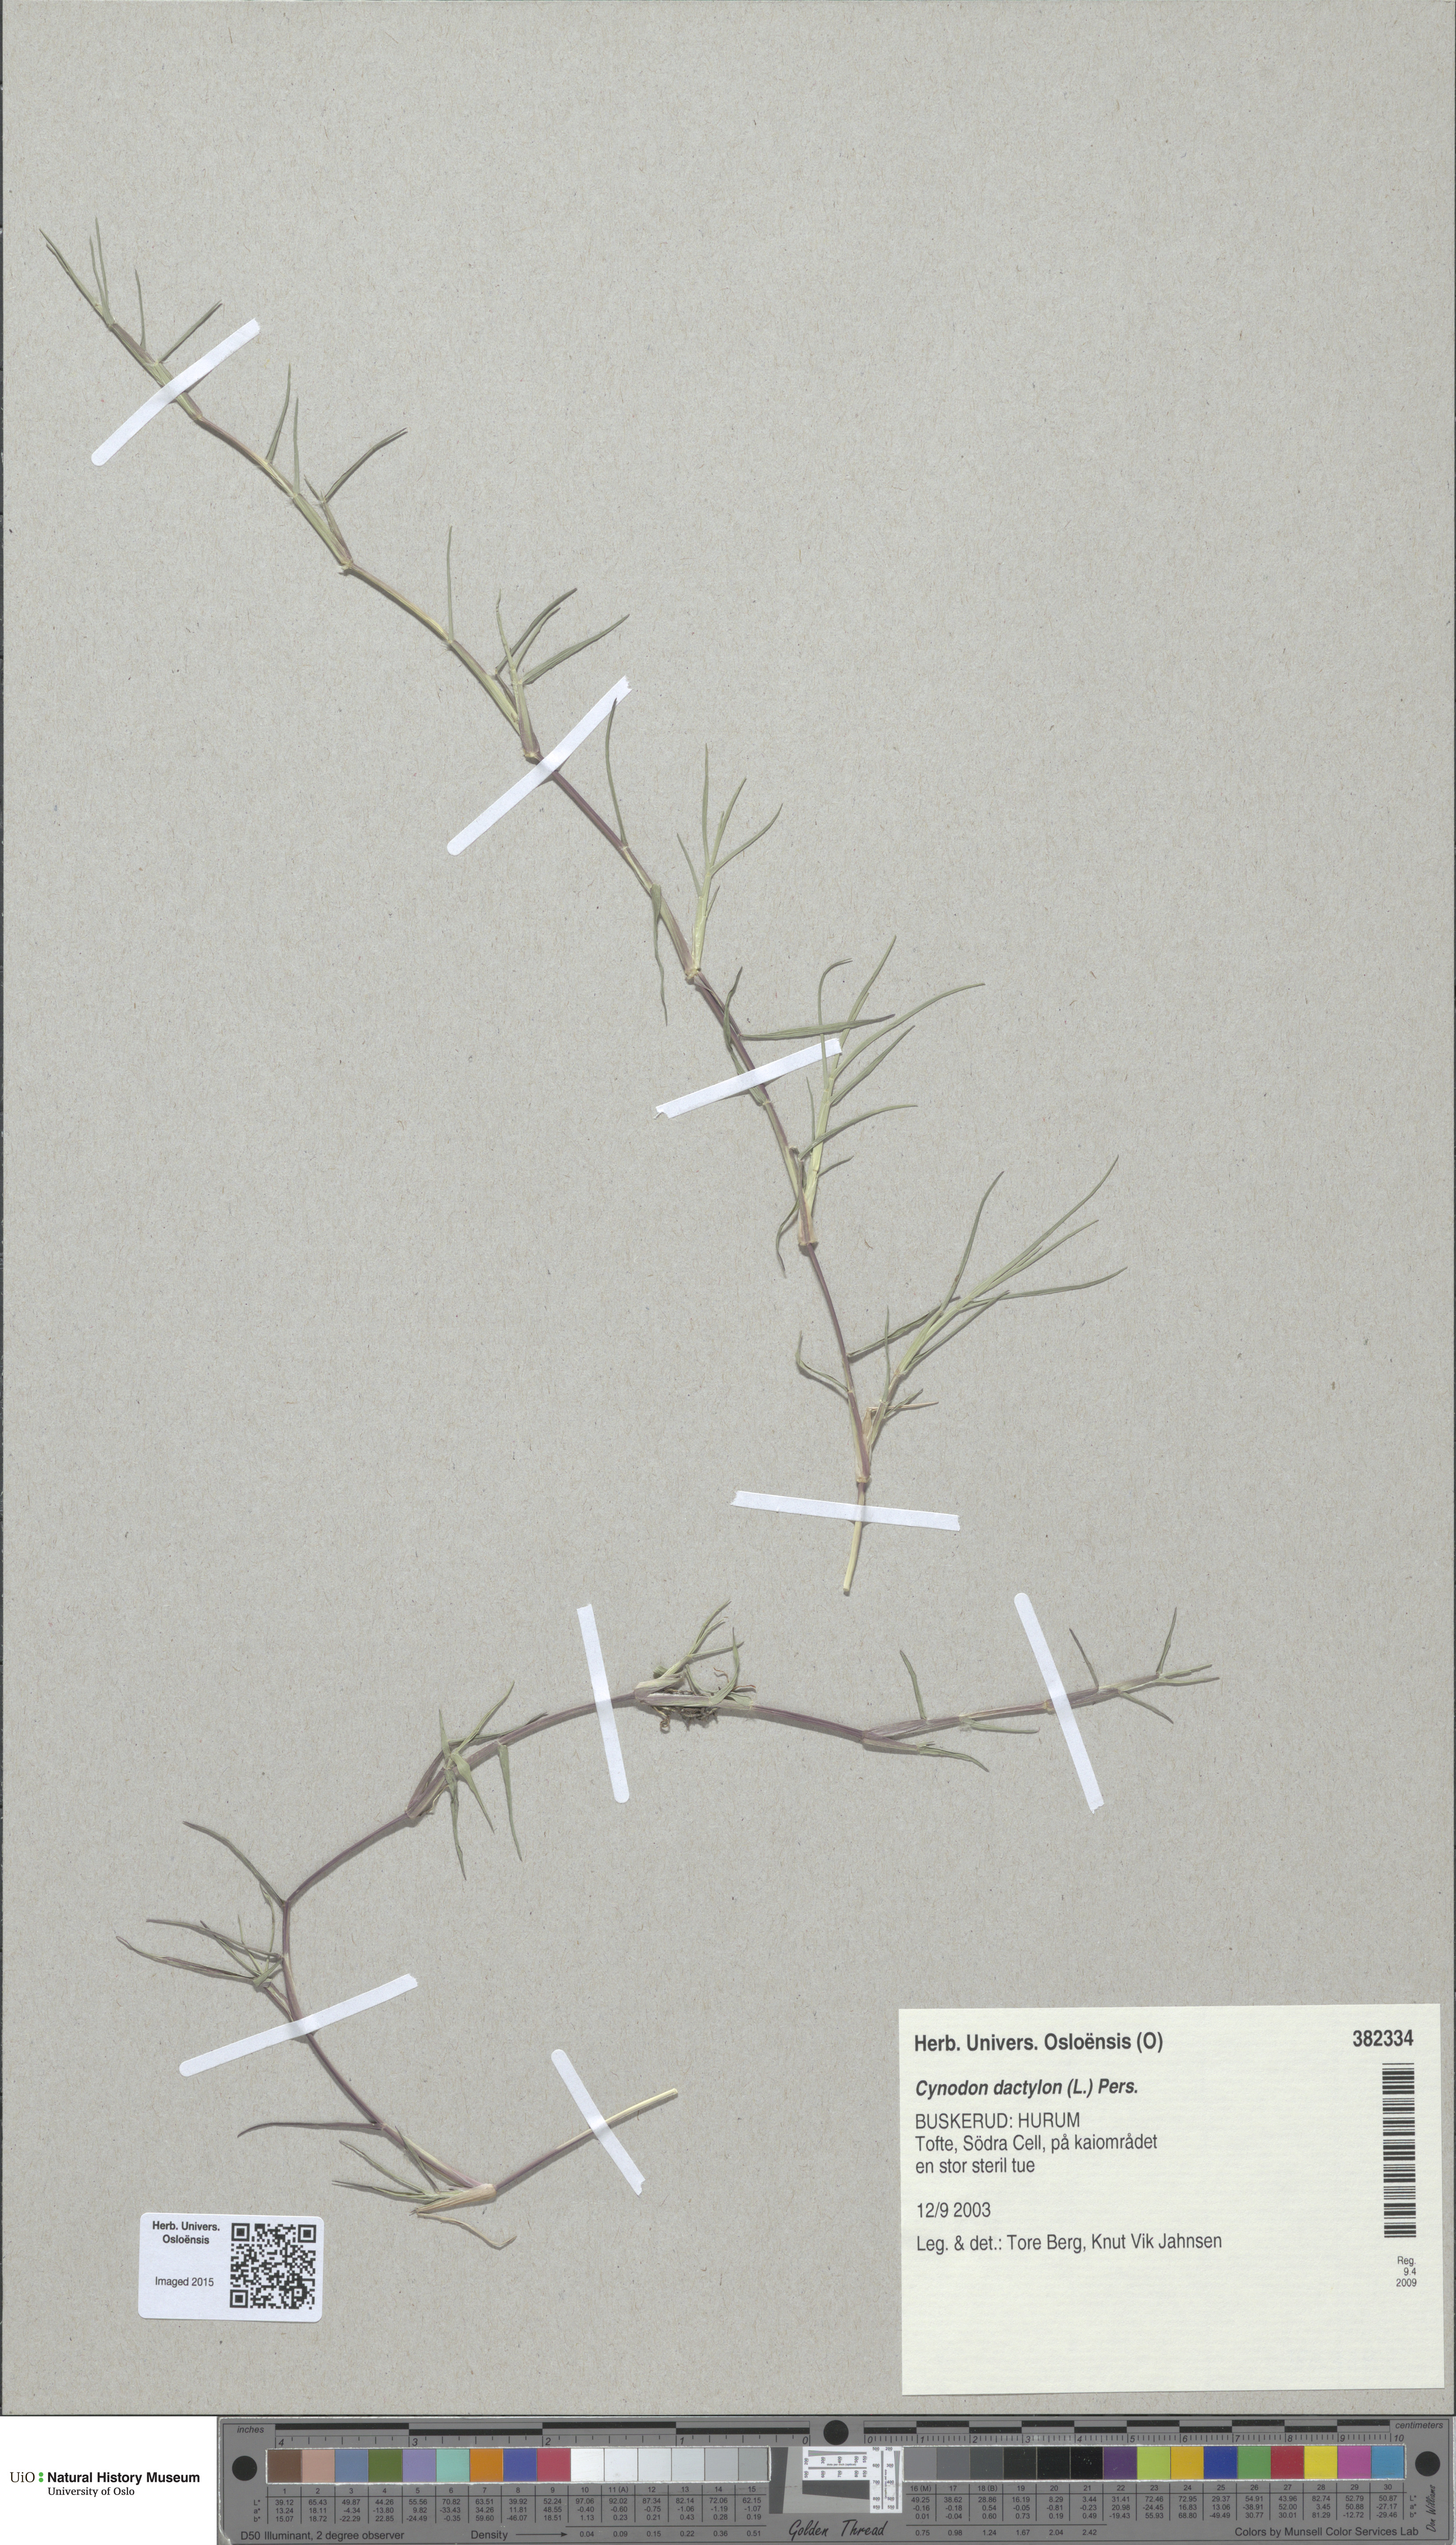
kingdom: Plantae
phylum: Tracheophyta
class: Liliopsida
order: Poales
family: Poaceae
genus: Cynodon
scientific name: Cynodon dactylon
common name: Bermuda grass
